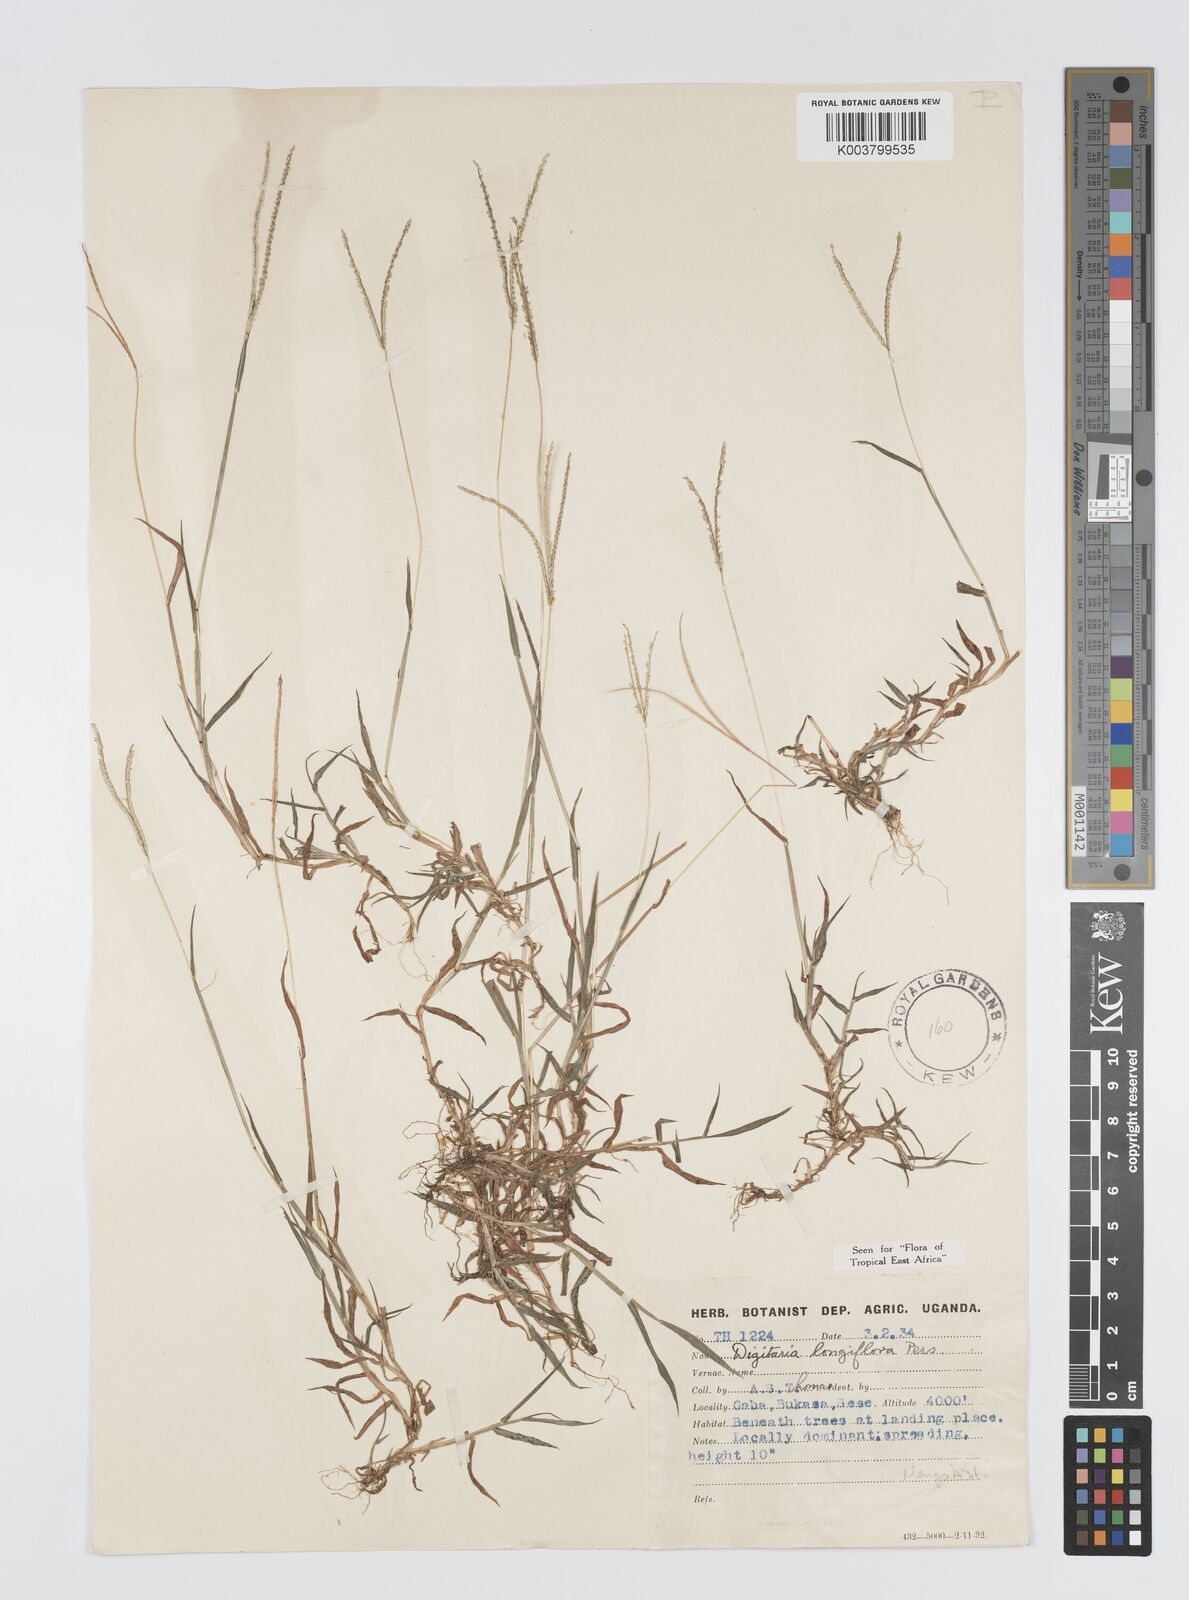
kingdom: Plantae
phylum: Tracheophyta
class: Liliopsida
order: Poales
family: Poaceae
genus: Digitaria
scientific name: Digitaria longiflora
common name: Wire crabgrass
